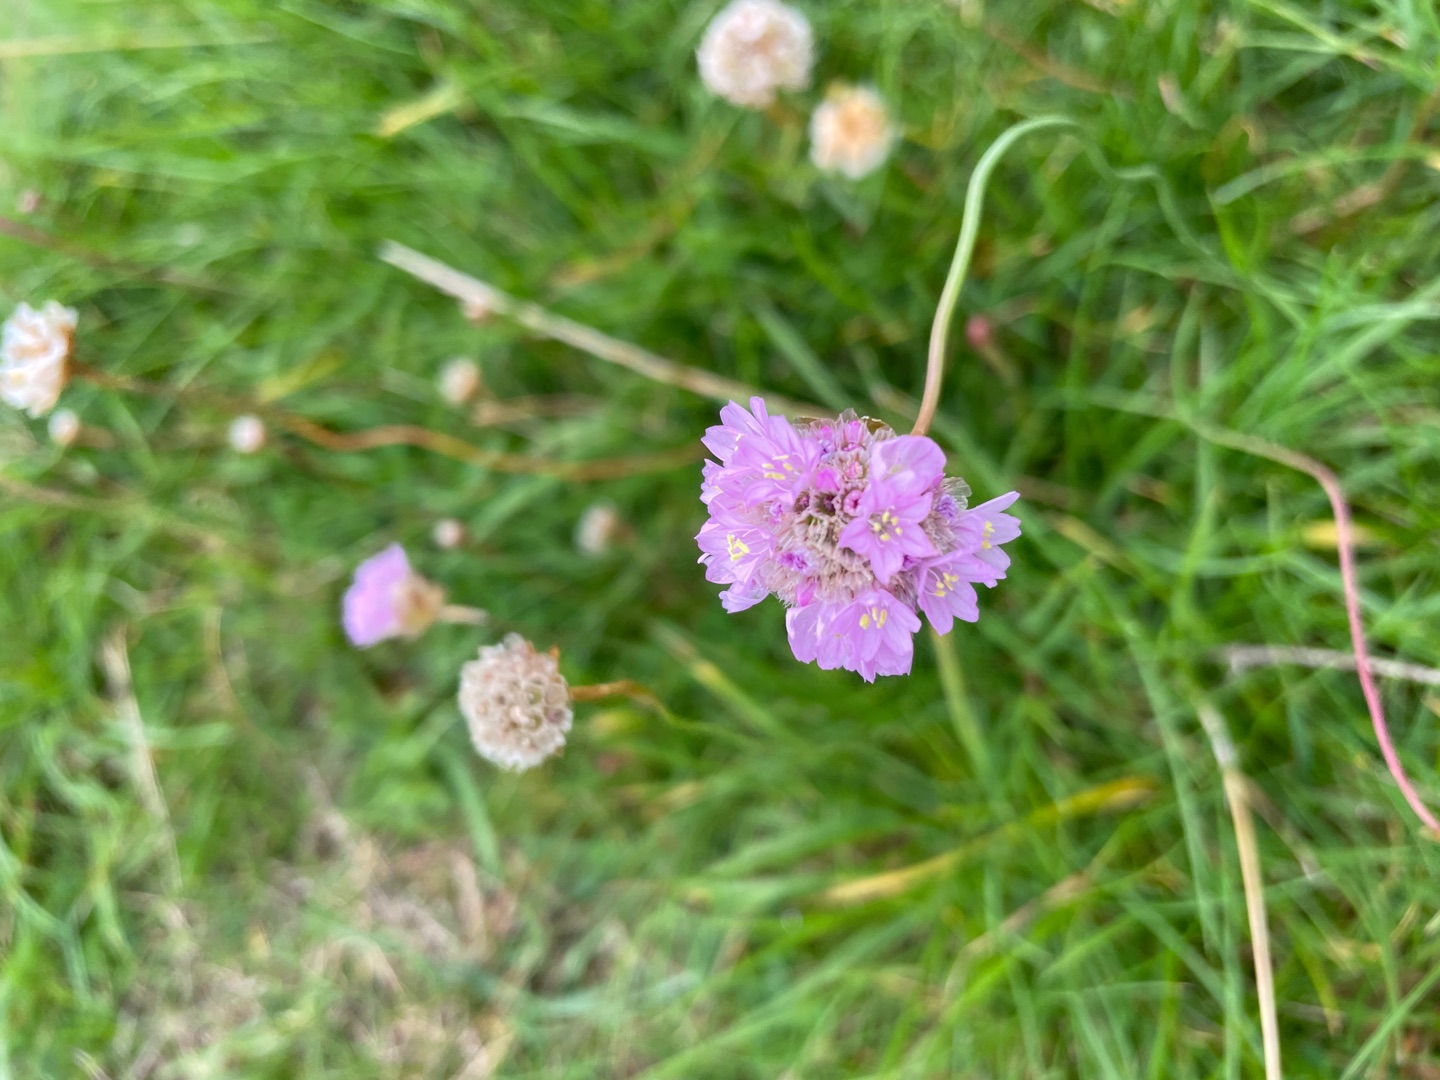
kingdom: Plantae
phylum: Tracheophyta
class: Magnoliopsida
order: Caryophyllales
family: Plumbaginaceae
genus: Armeria
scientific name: Armeria maritima
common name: Engelskgræs
